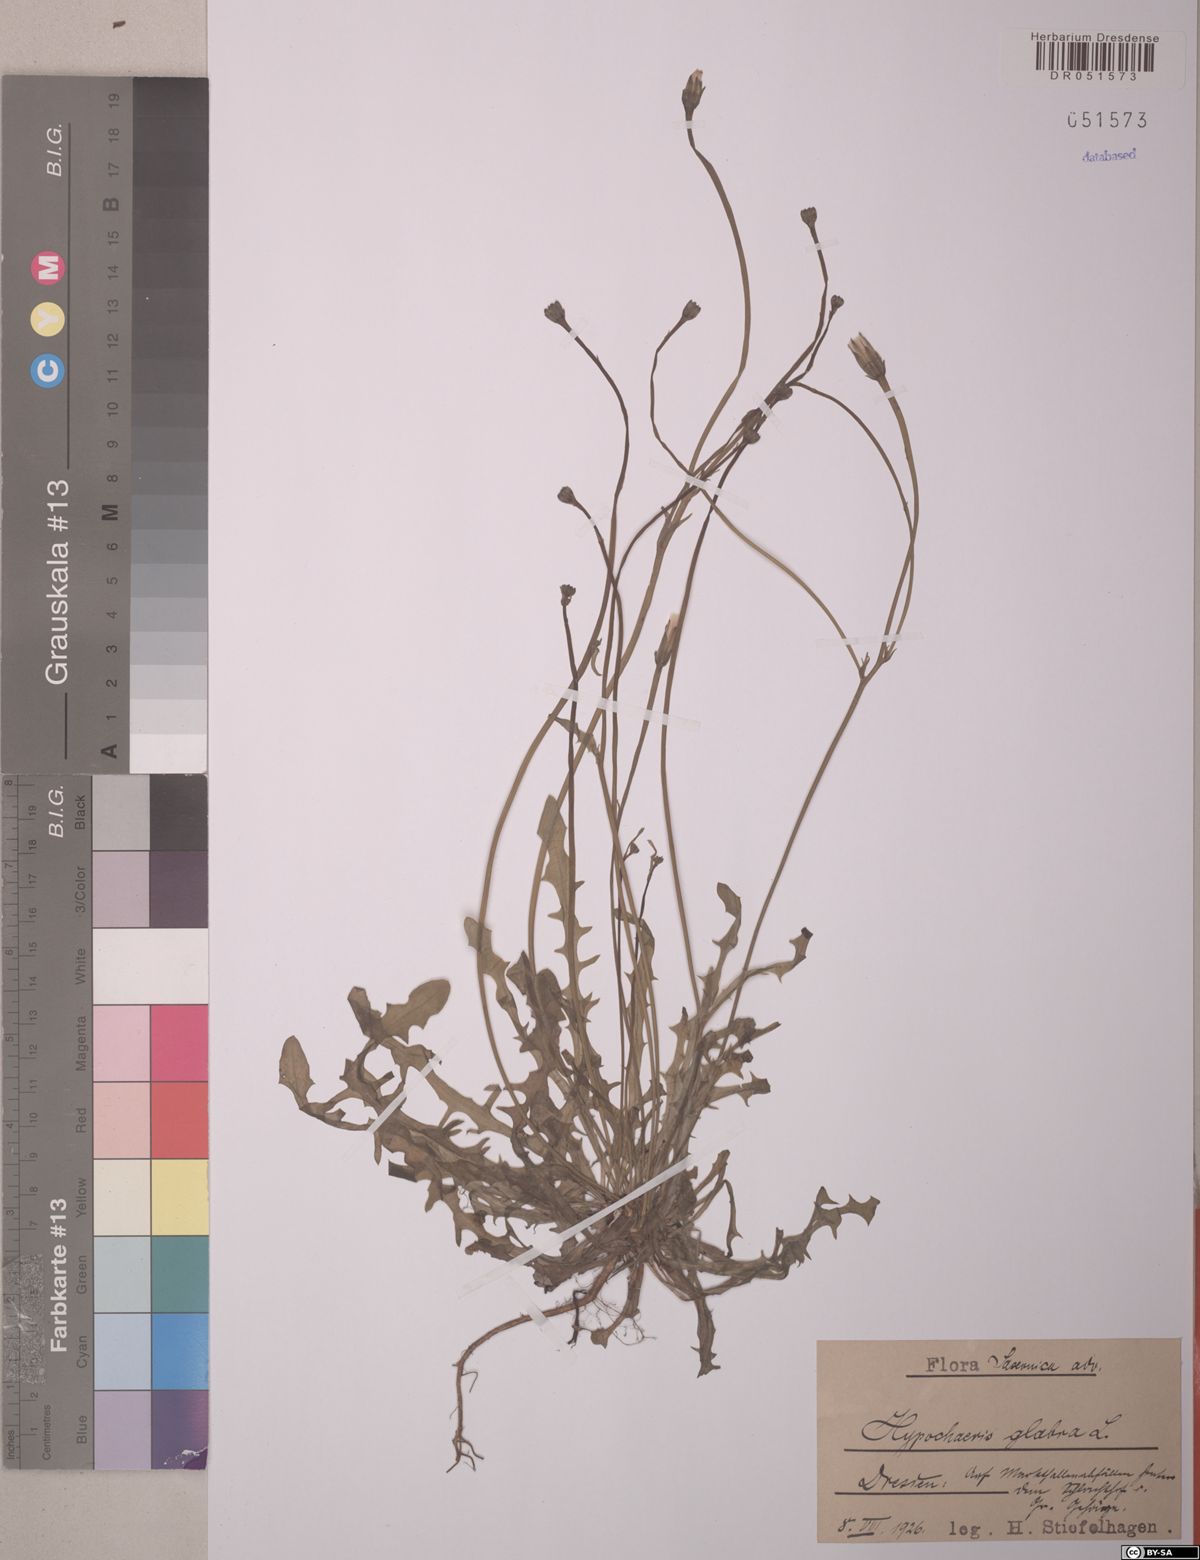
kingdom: Plantae
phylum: Tracheophyta
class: Magnoliopsida
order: Asterales
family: Asteraceae
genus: Hypochaeris
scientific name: Hypochaeris glabra
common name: Smooth catsear
